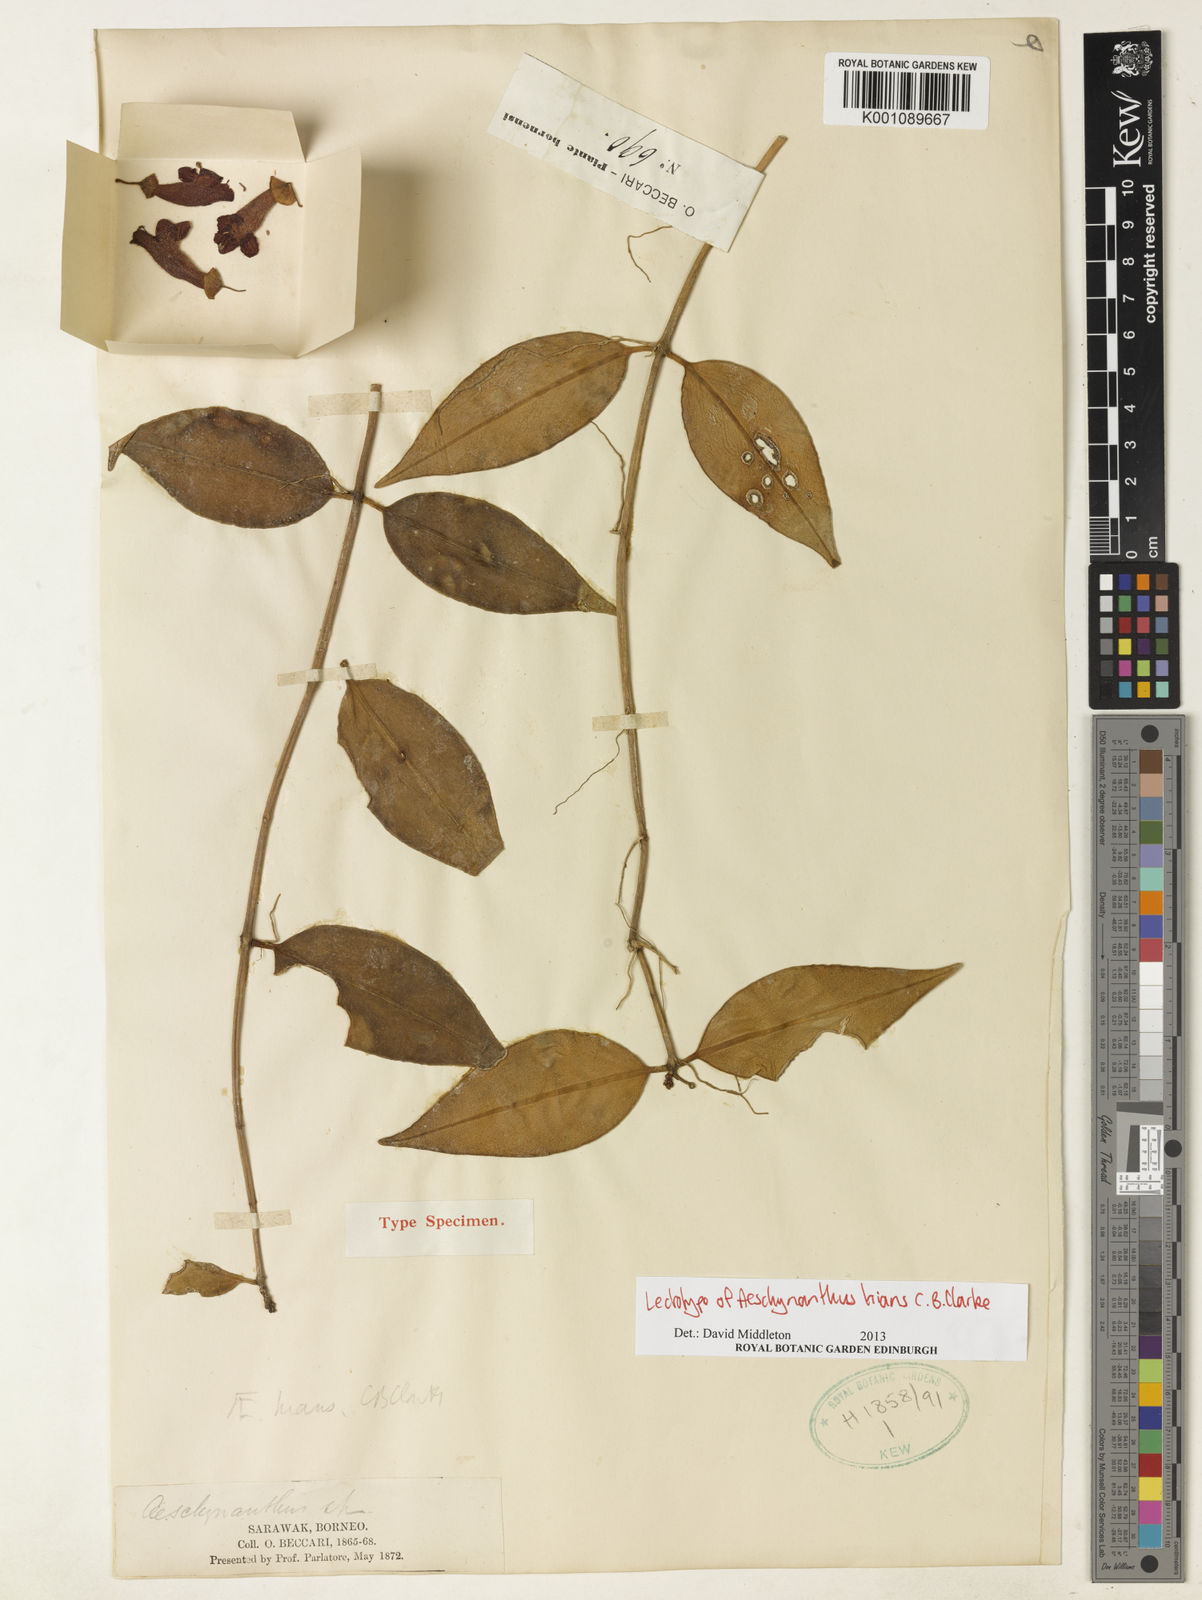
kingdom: Plantae
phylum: Tracheophyta
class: Magnoliopsida
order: Lamiales
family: Gesneriaceae
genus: Aeschynanthus
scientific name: Aeschynanthus hians
